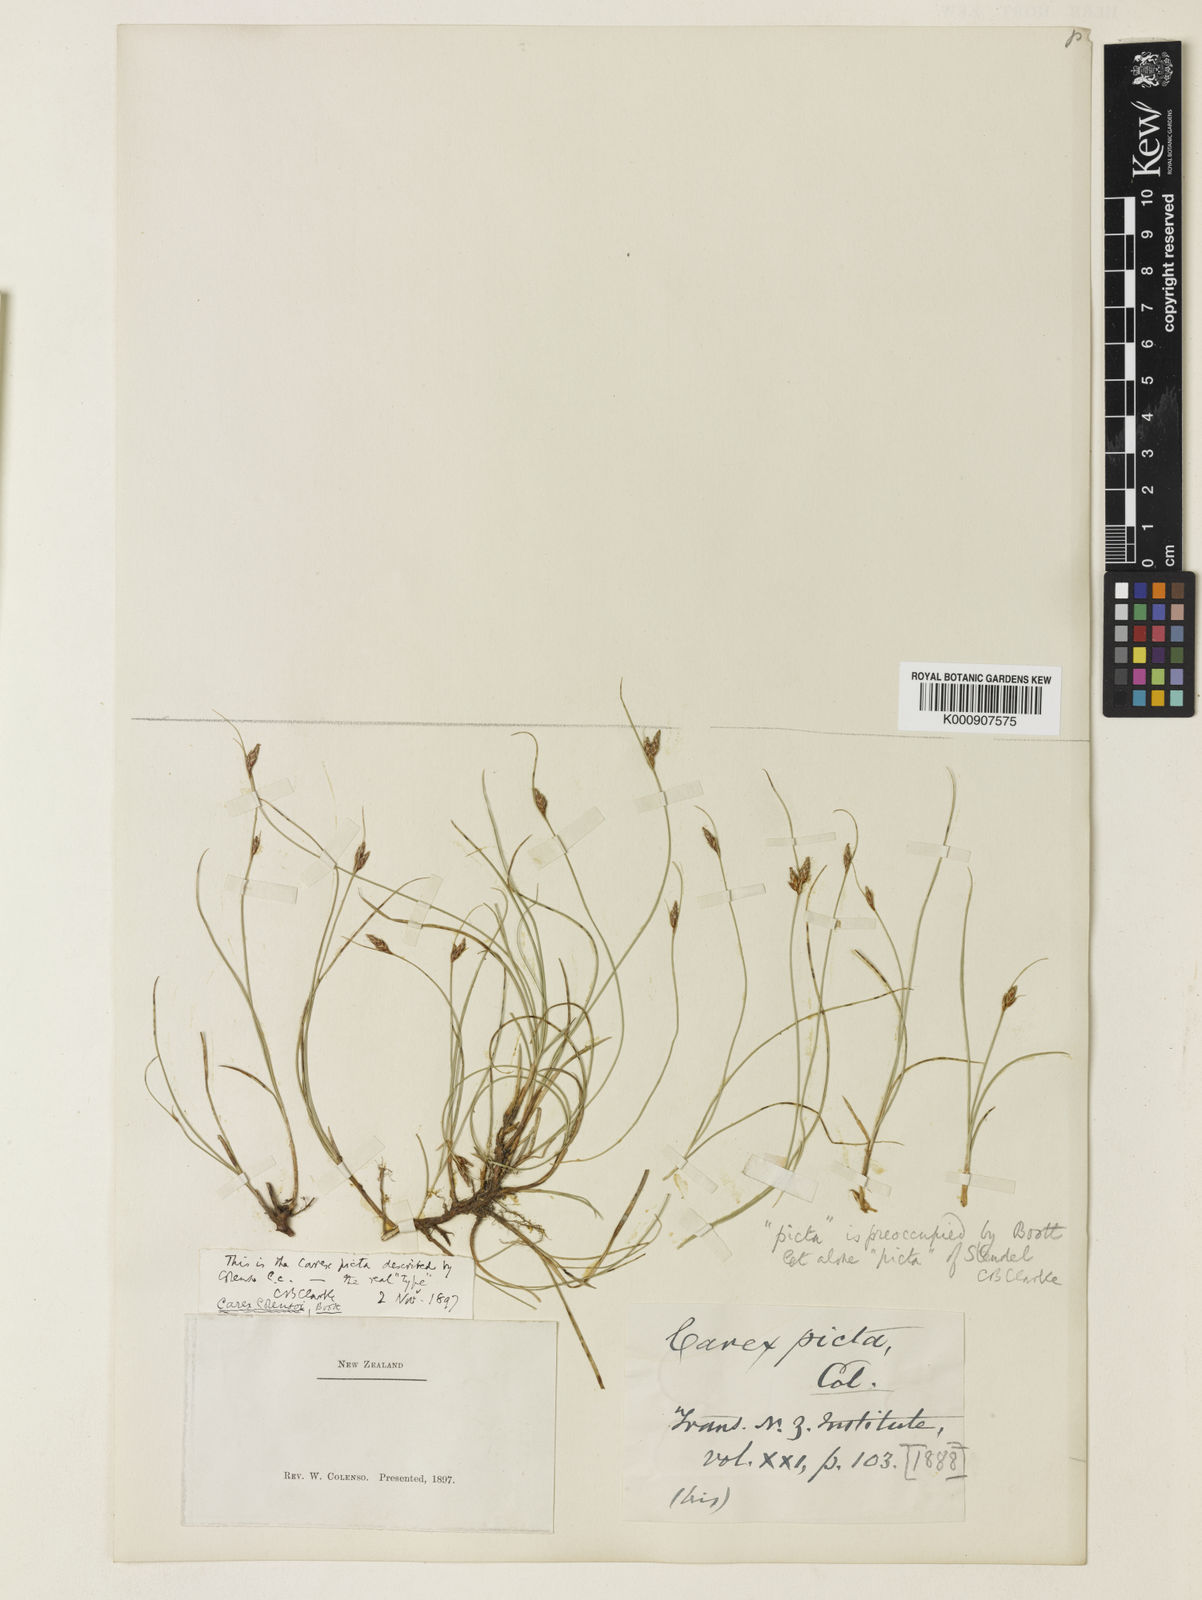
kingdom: Plantae
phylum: Tracheophyta
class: Liliopsida
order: Poales
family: Cyperaceae
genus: Carex
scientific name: Carex colensoi
